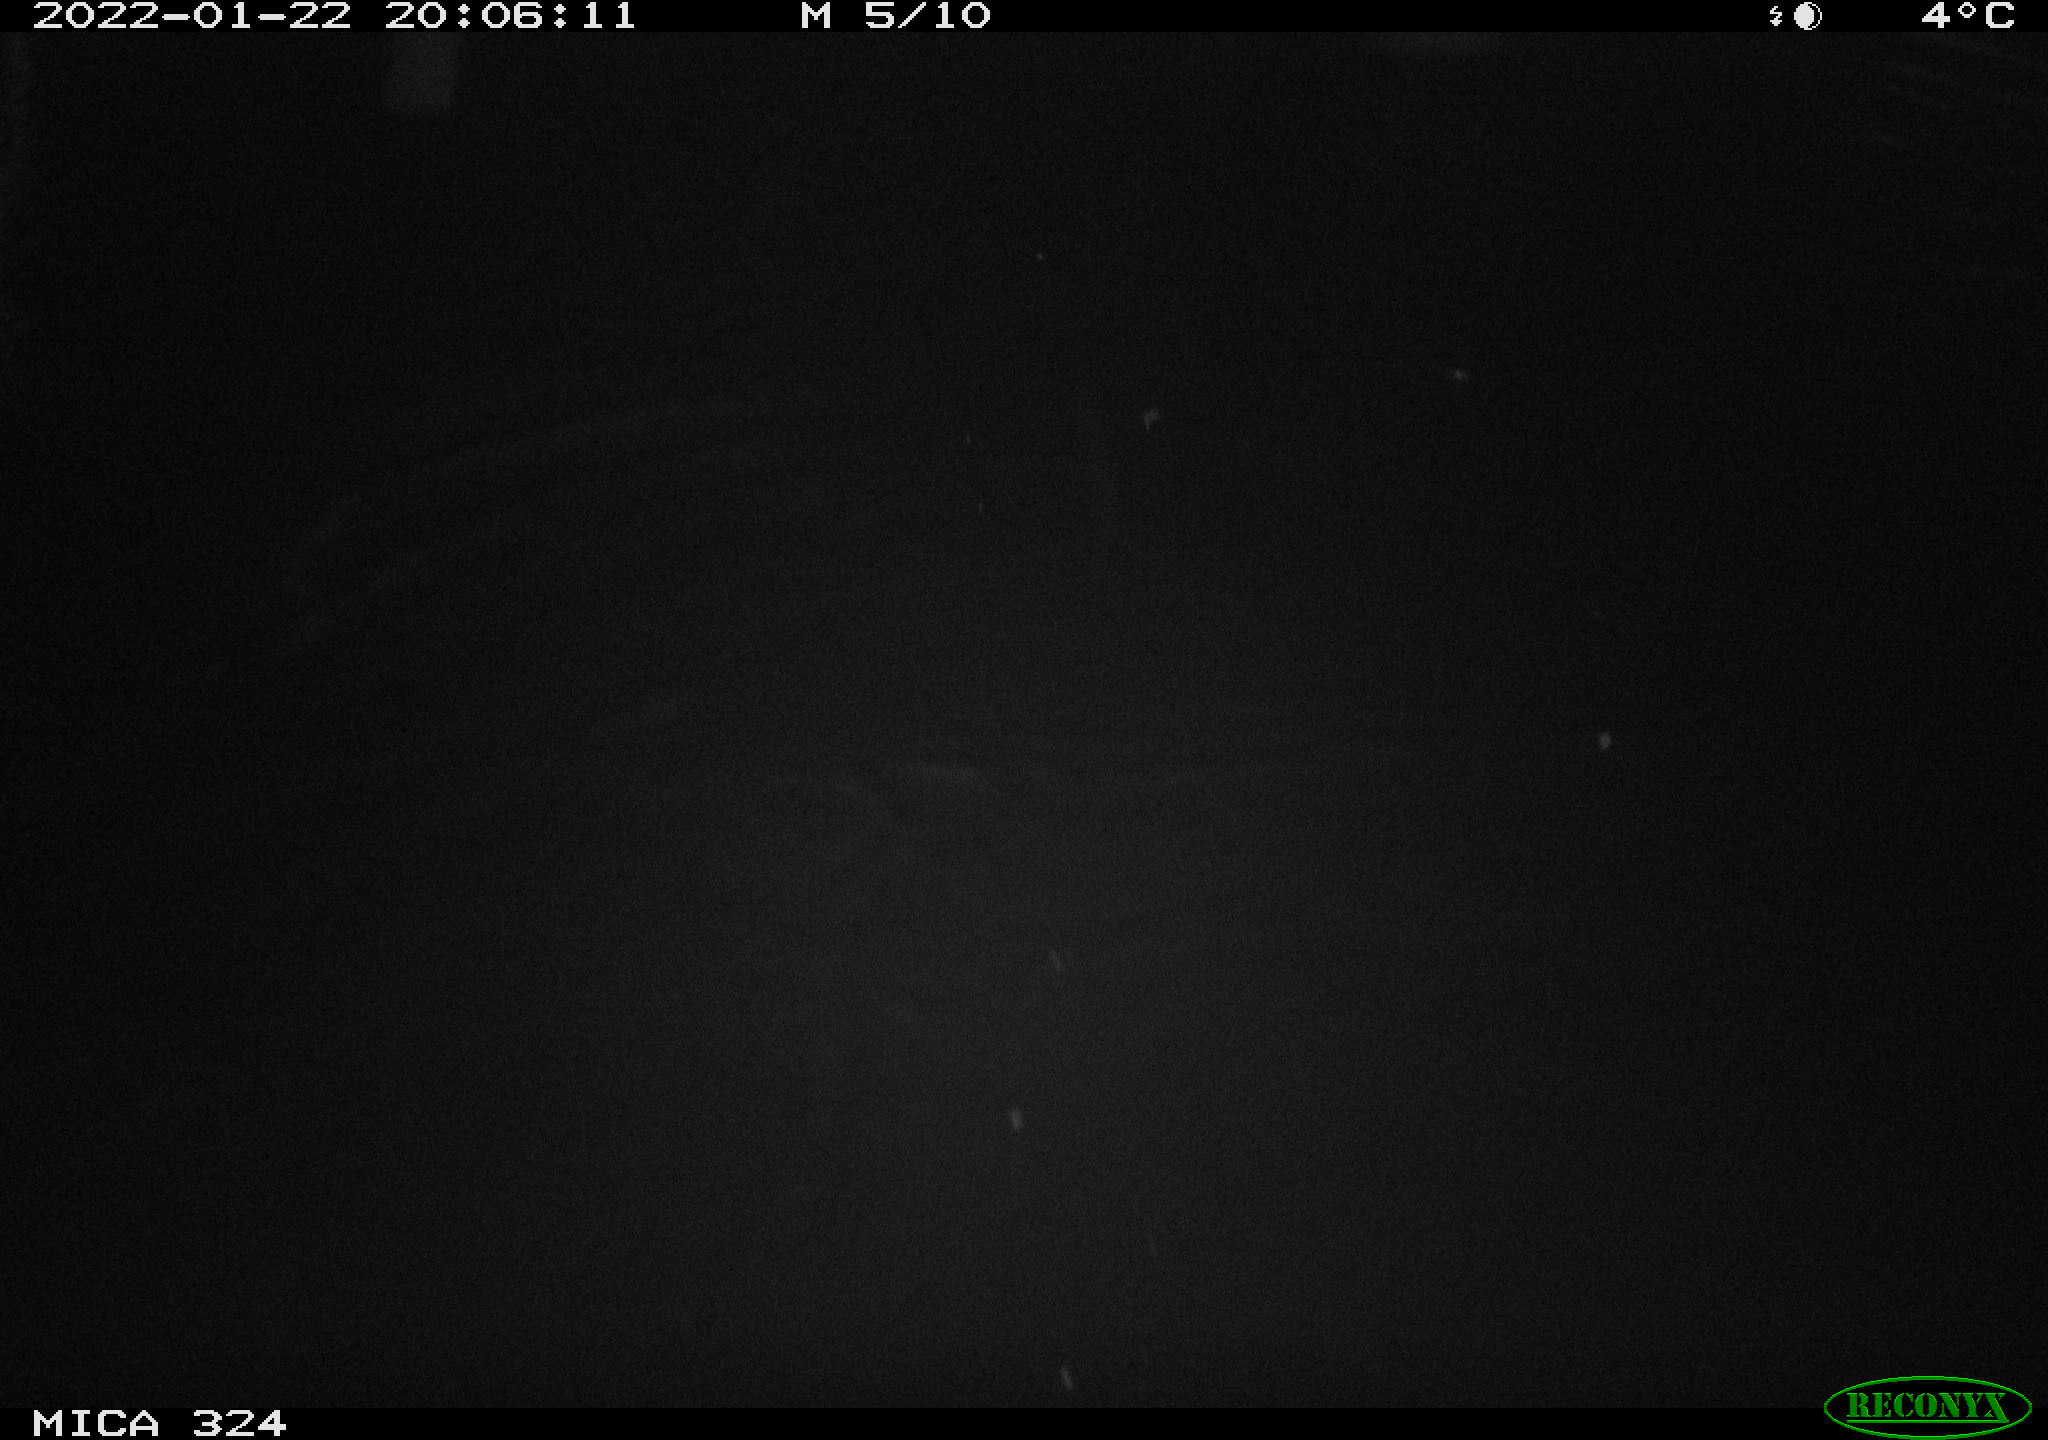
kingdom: Animalia
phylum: Chordata
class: Mammalia
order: Rodentia
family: Cricetidae
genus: Ondatra
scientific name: Ondatra zibethicus
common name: Muskrat
